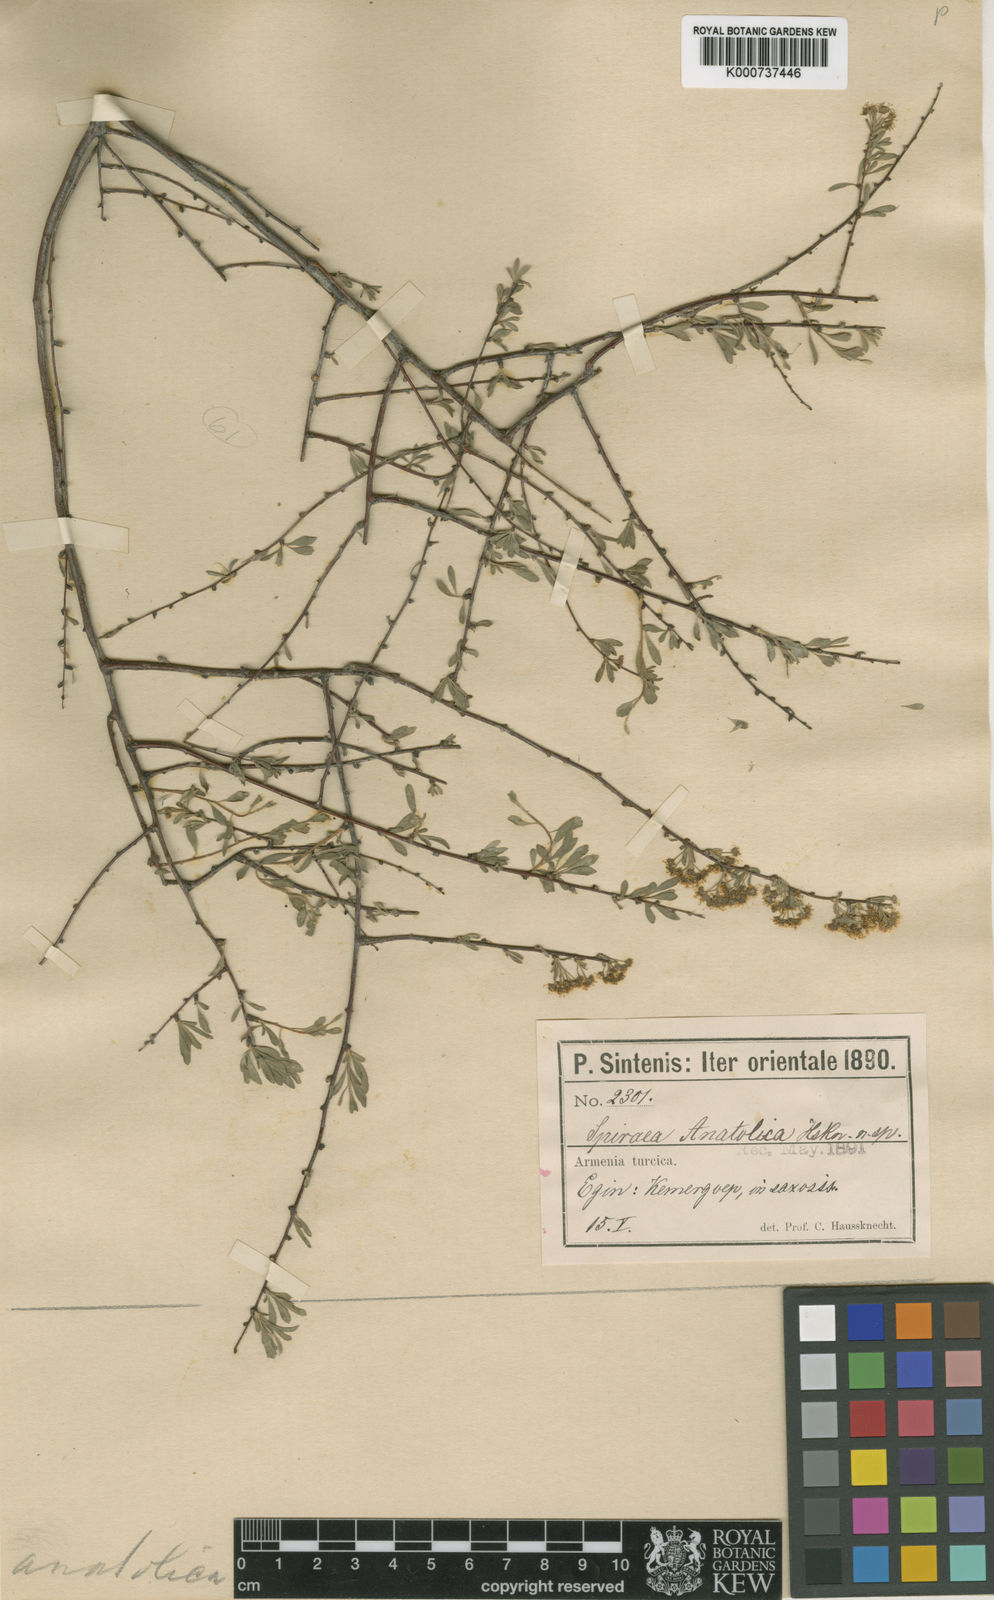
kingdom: Plantae
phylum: Tracheophyta
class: Magnoliopsida
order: Rosales
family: Rosaceae
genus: Spiraea
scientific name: Spiraea crenata
